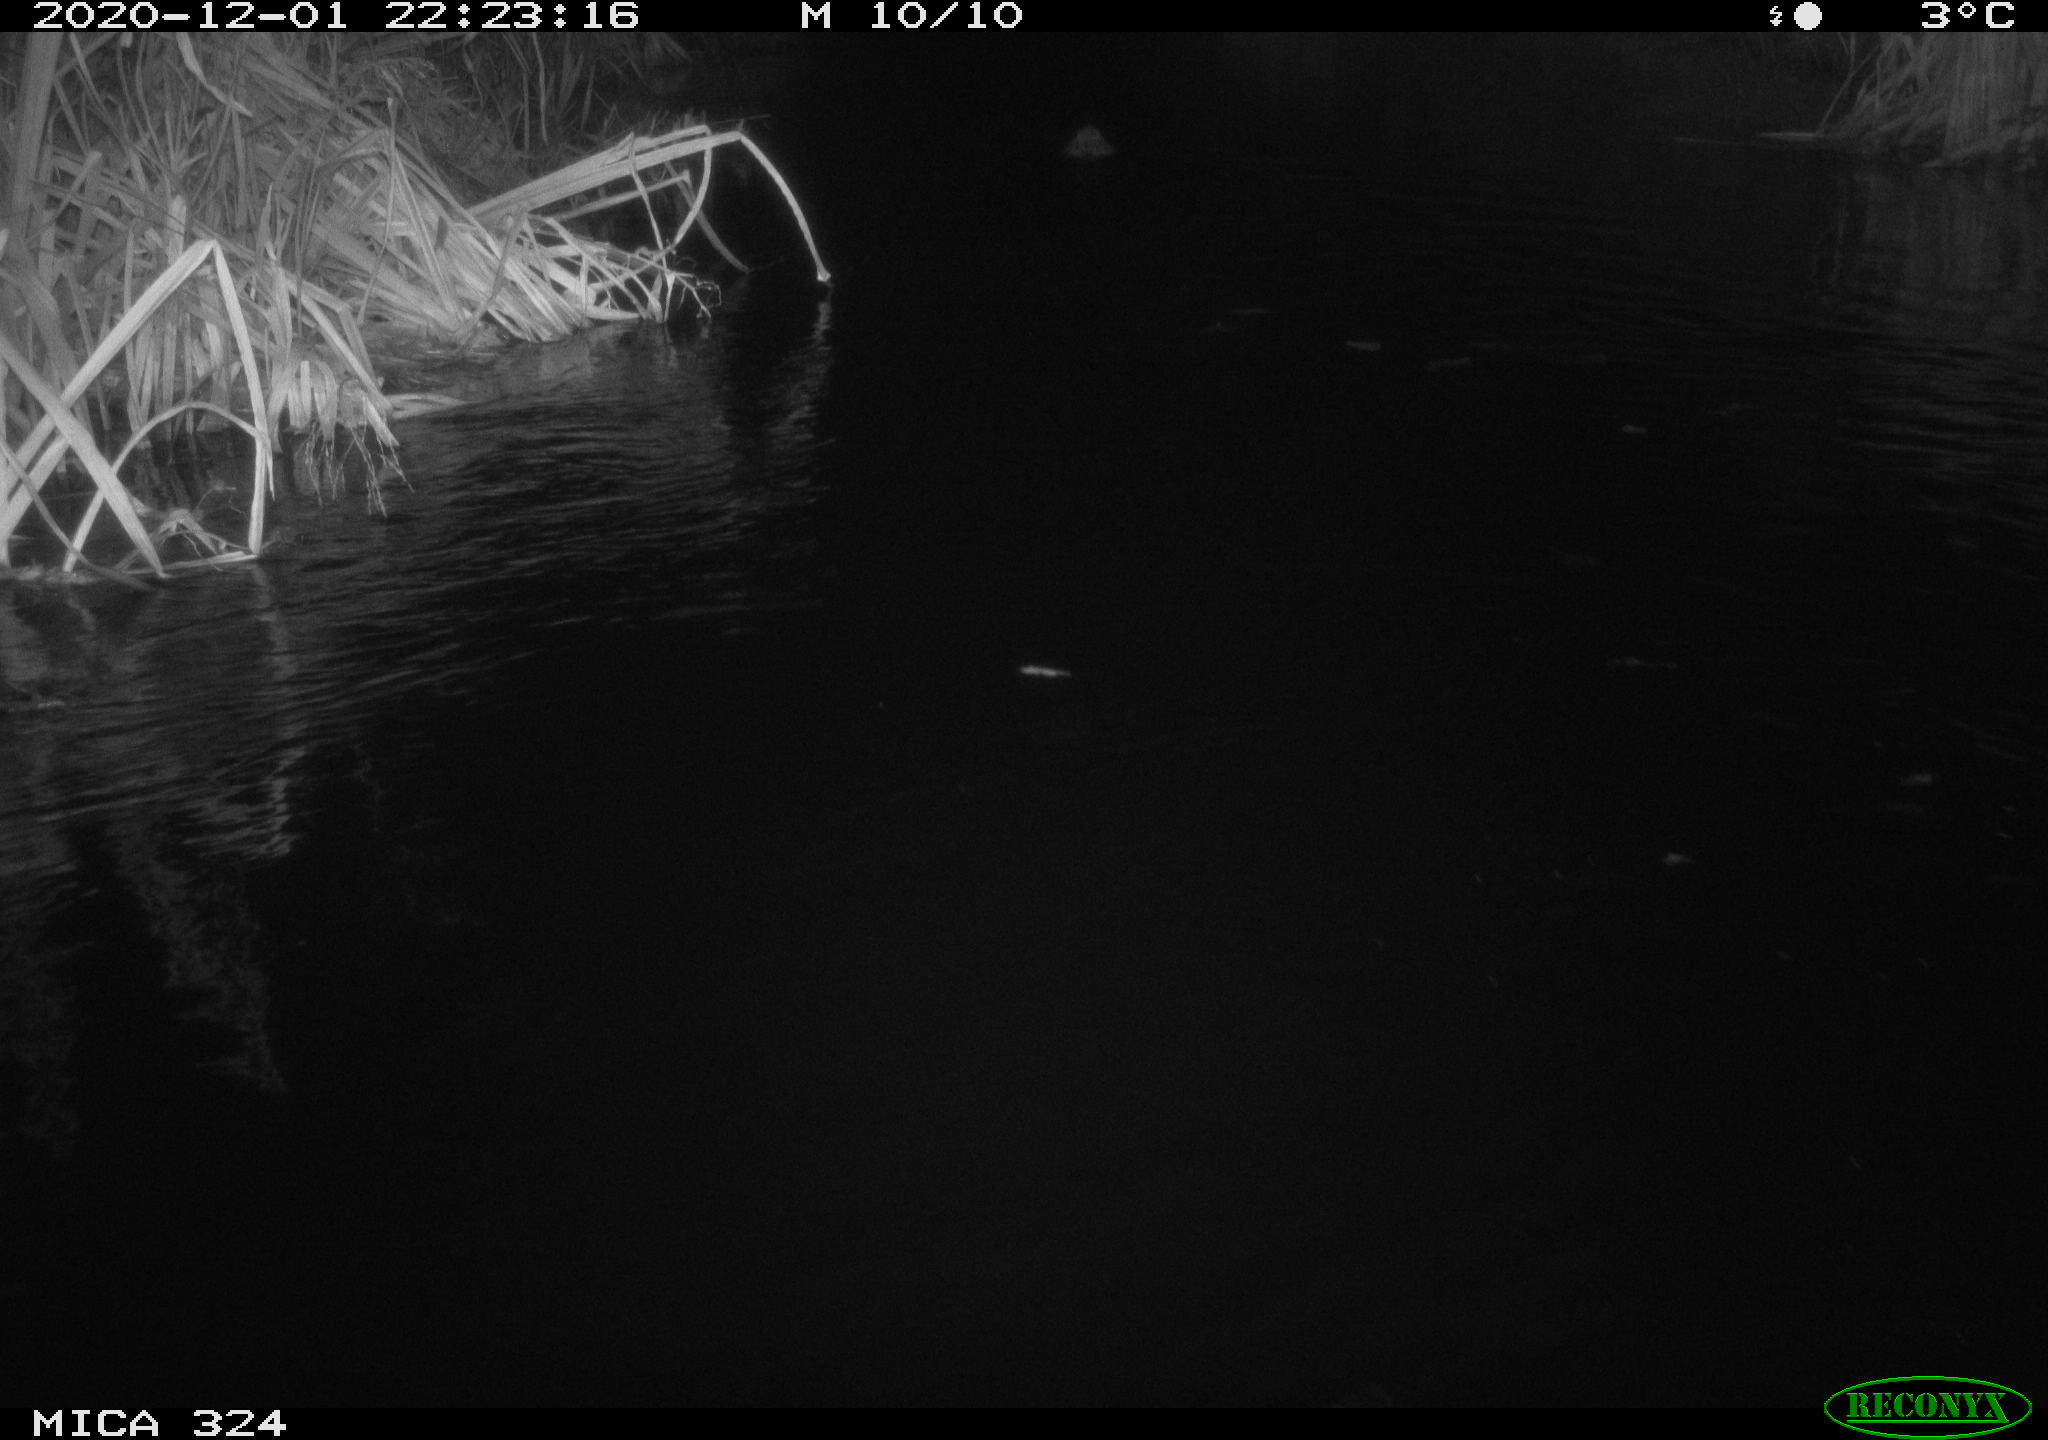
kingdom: Animalia
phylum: Chordata
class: Mammalia
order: Rodentia
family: Myocastoridae
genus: Myocastor
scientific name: Myocastor coypus
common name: Coypu
